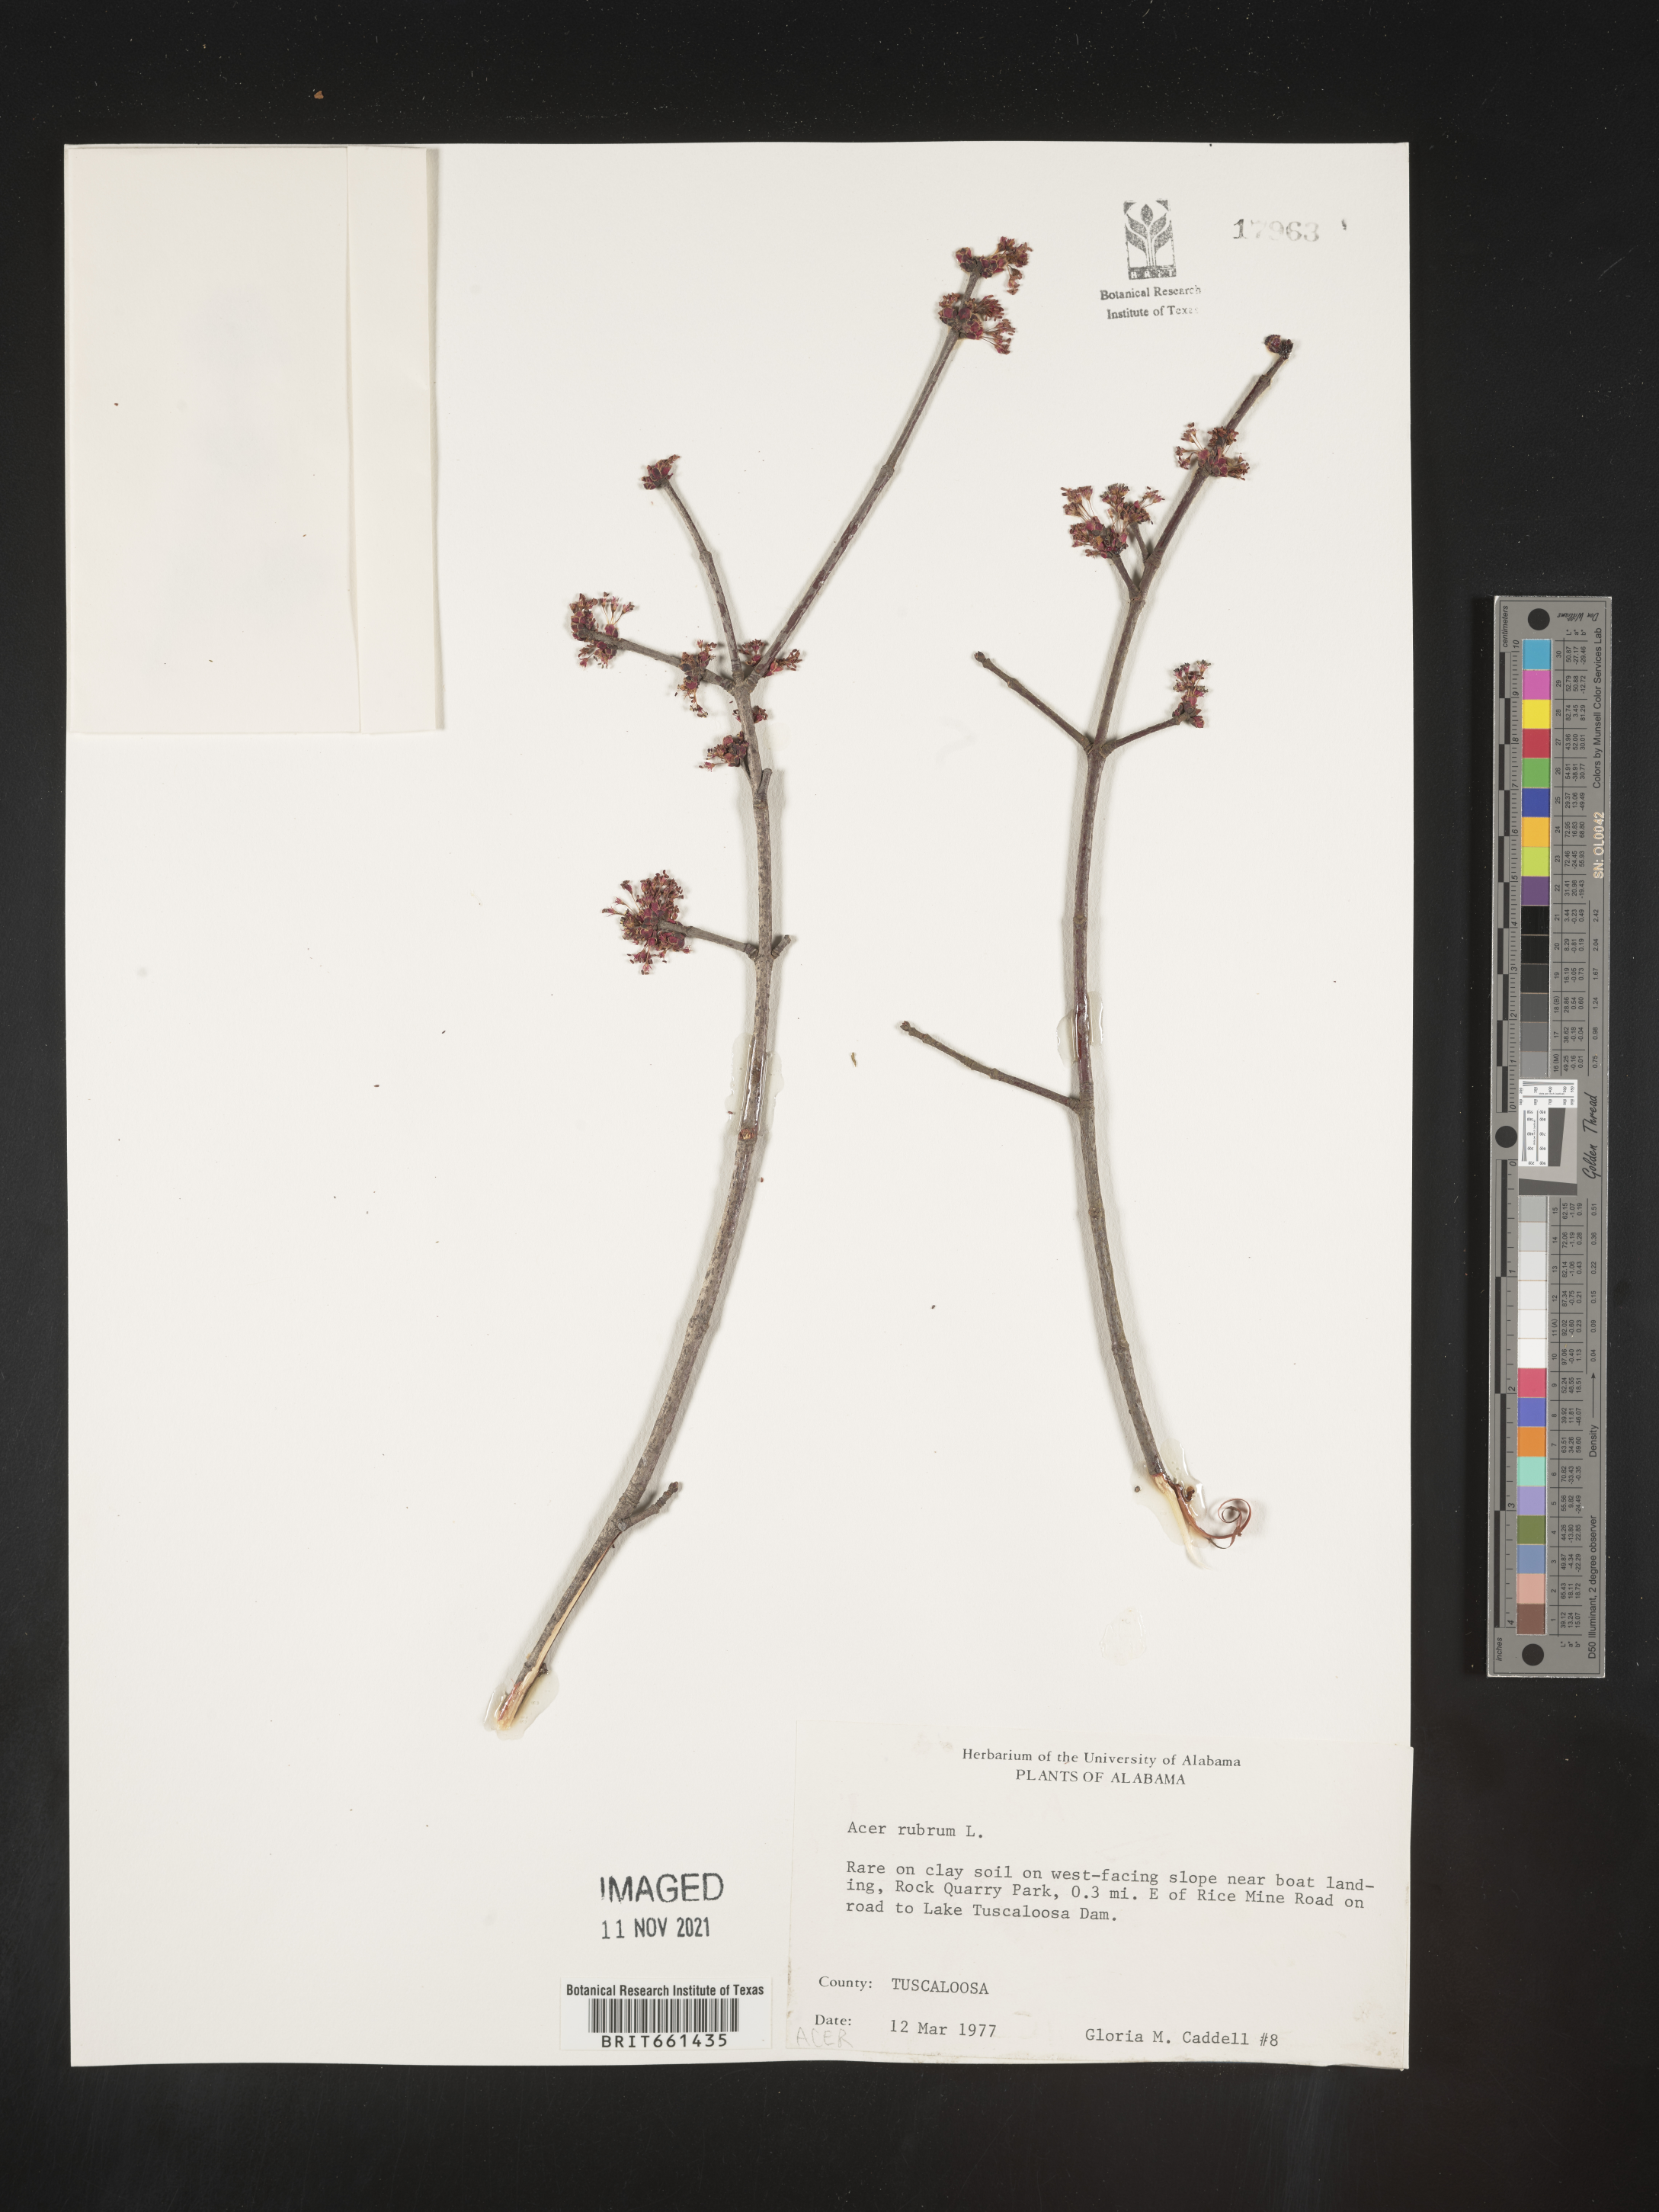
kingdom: Plantae
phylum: Tracheophyta
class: Magnoliopsida
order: Sapindales
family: Sapindaceae
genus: Acer
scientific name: Acer rubrum
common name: Red maple
